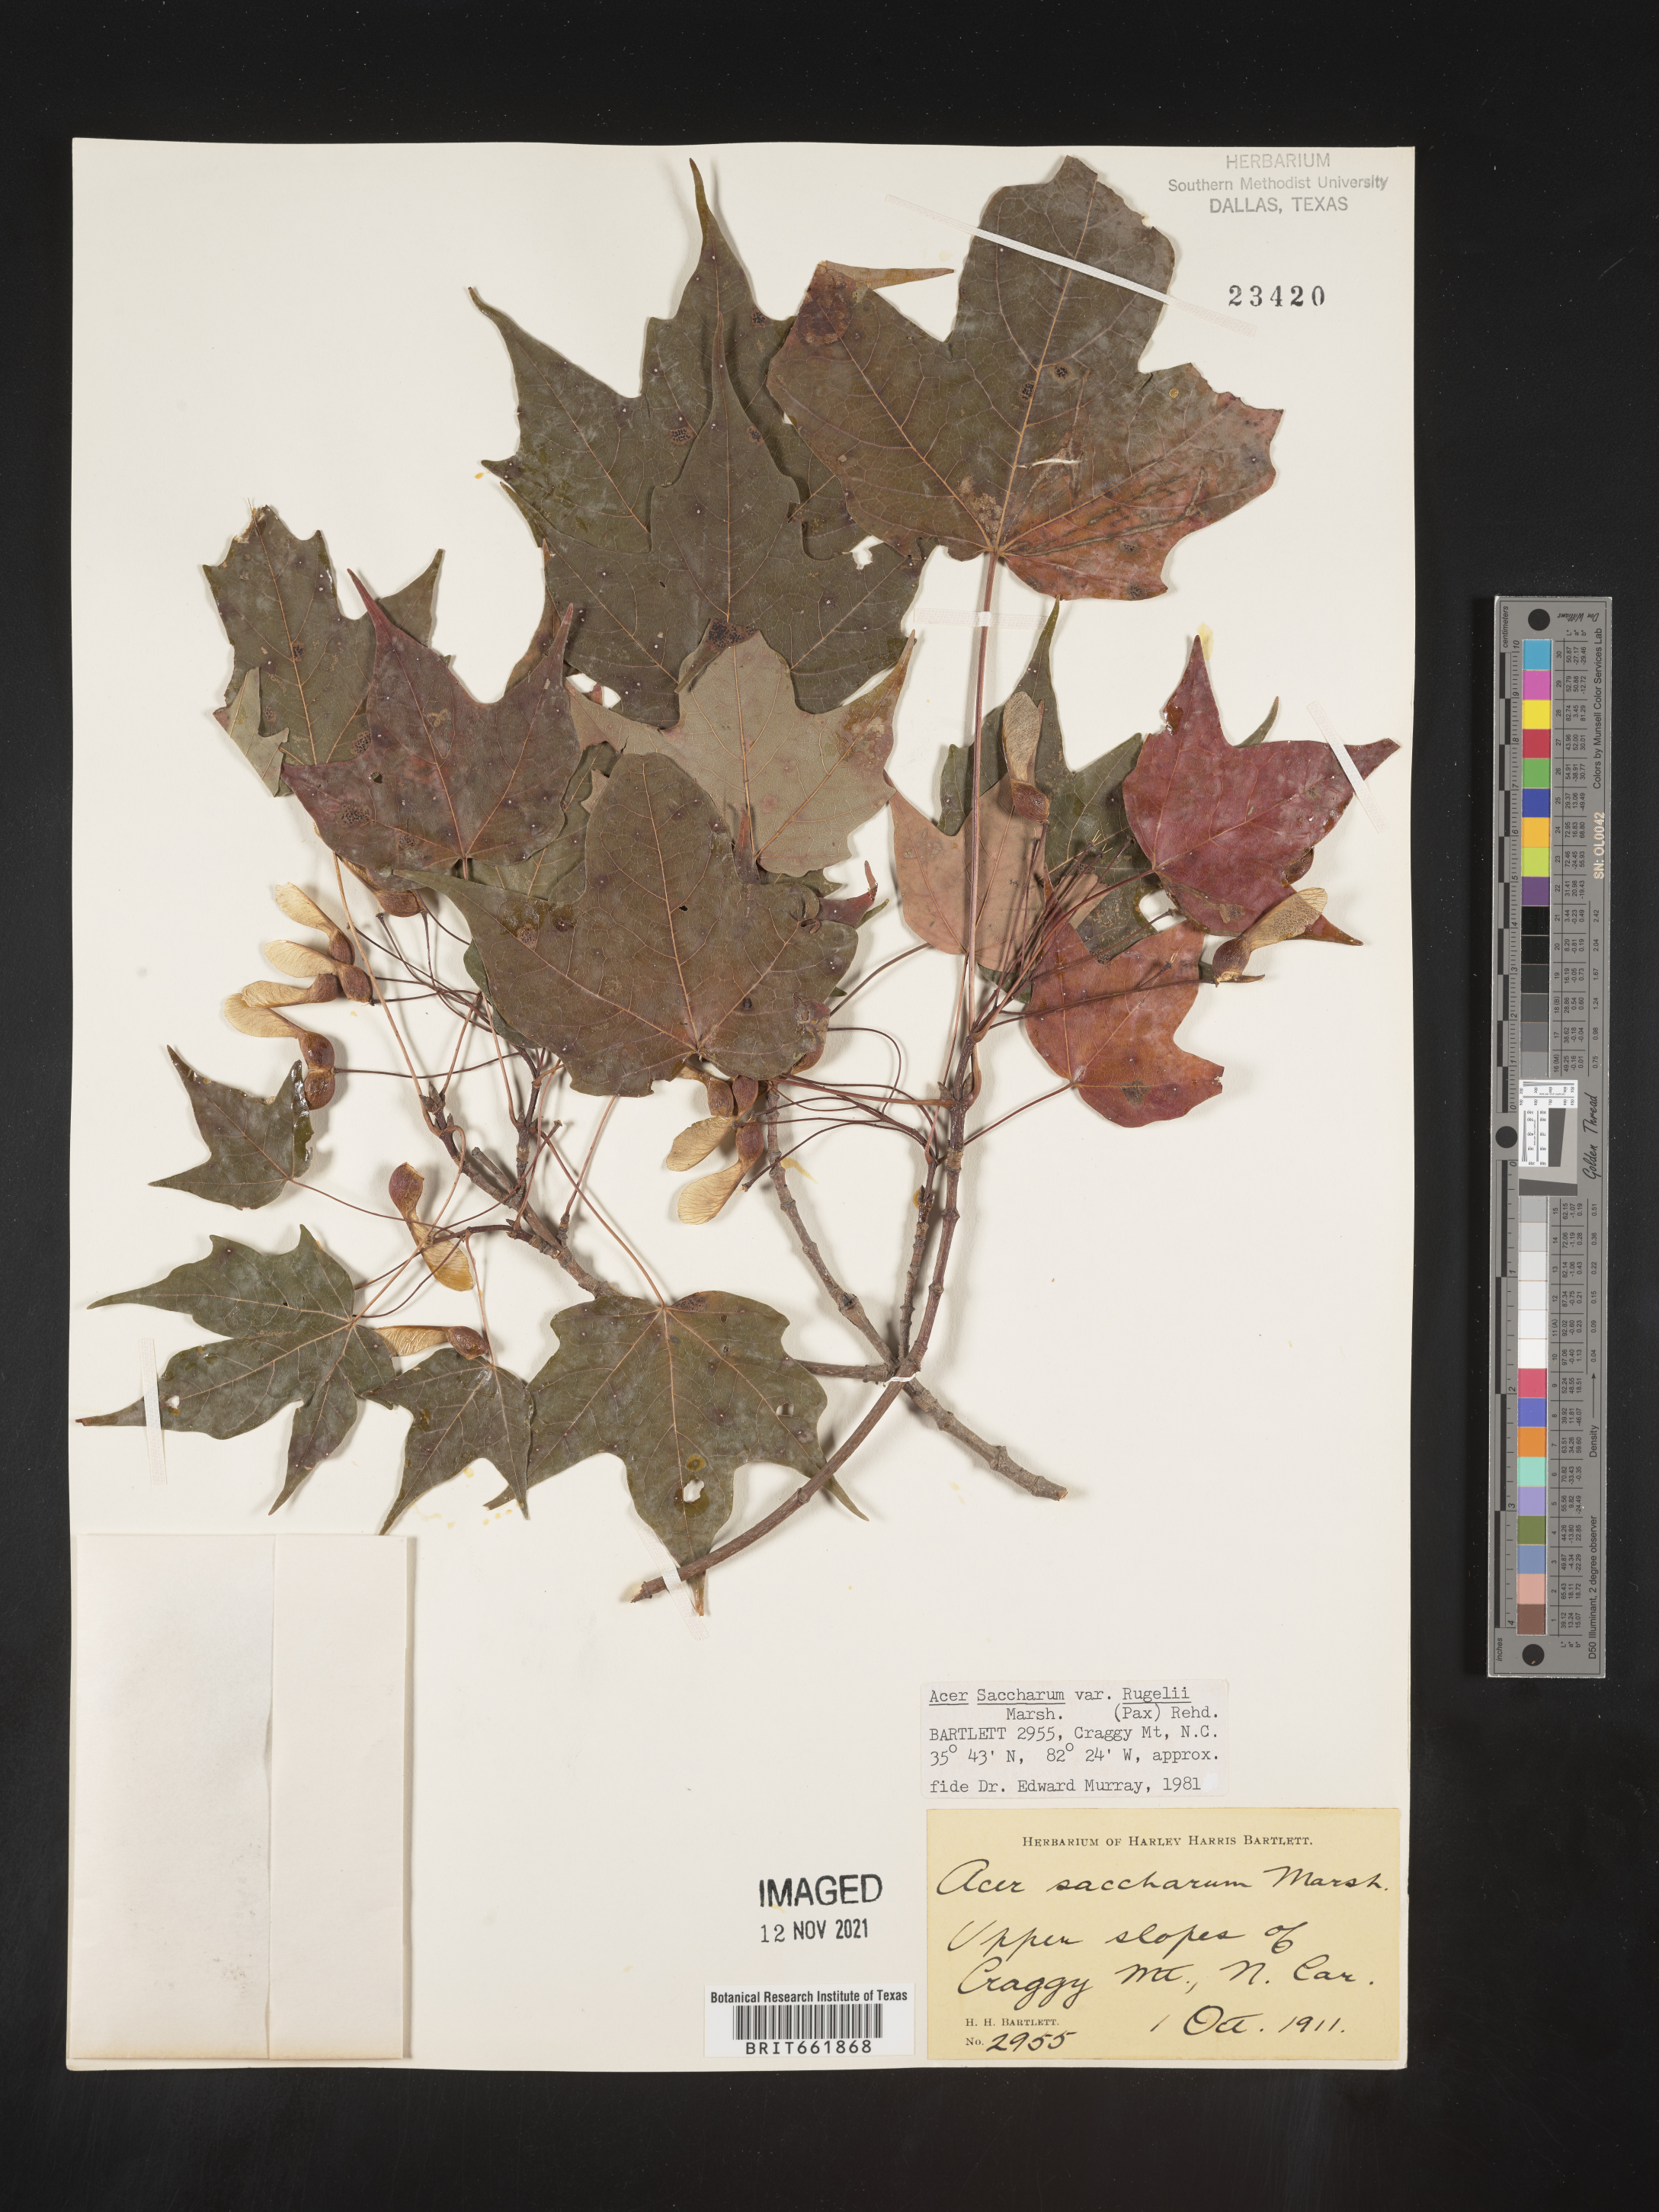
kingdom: Plantae
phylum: Tracheophyta
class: Magnoliopsida
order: Sapindales
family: Sapindaceae
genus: Acer
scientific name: Acer saccharum
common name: Sugar maple
